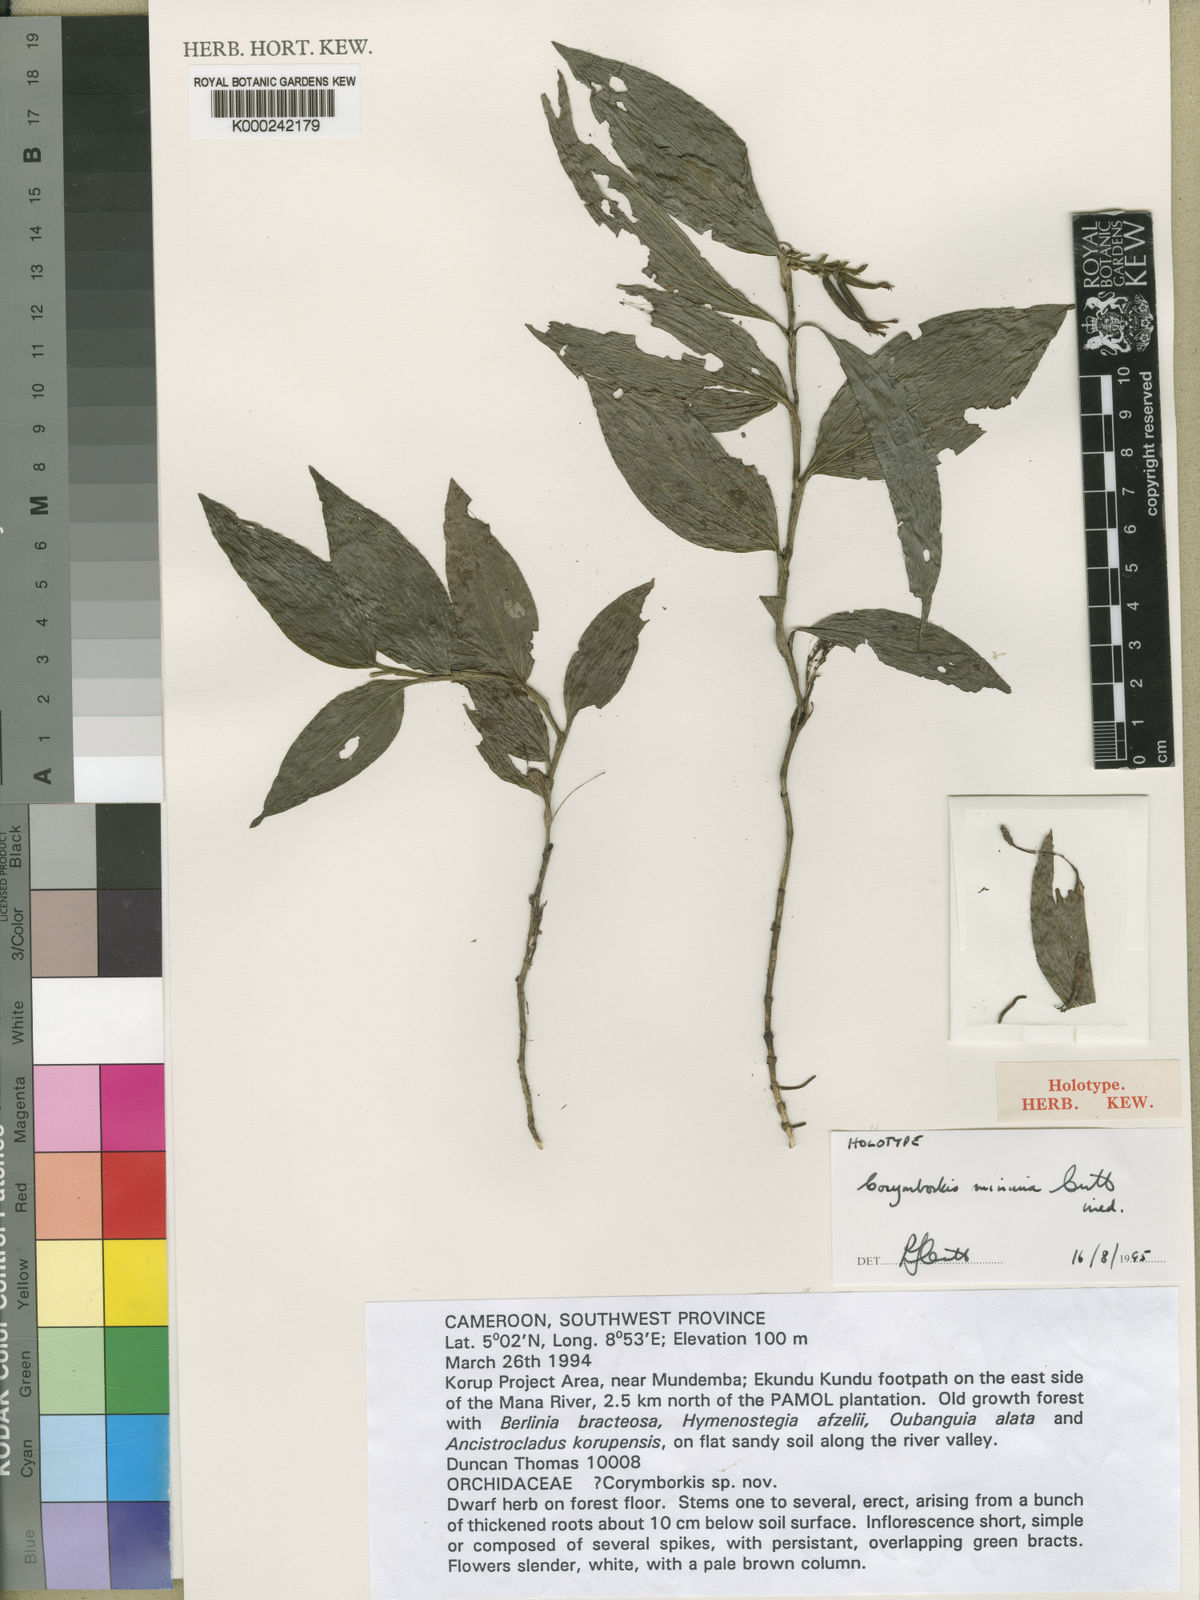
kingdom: Plantae
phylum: Tracheophyta
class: Liliopsida
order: Asparagales
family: Orchidaceae
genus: Corymborkis
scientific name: Corymborkis minima
